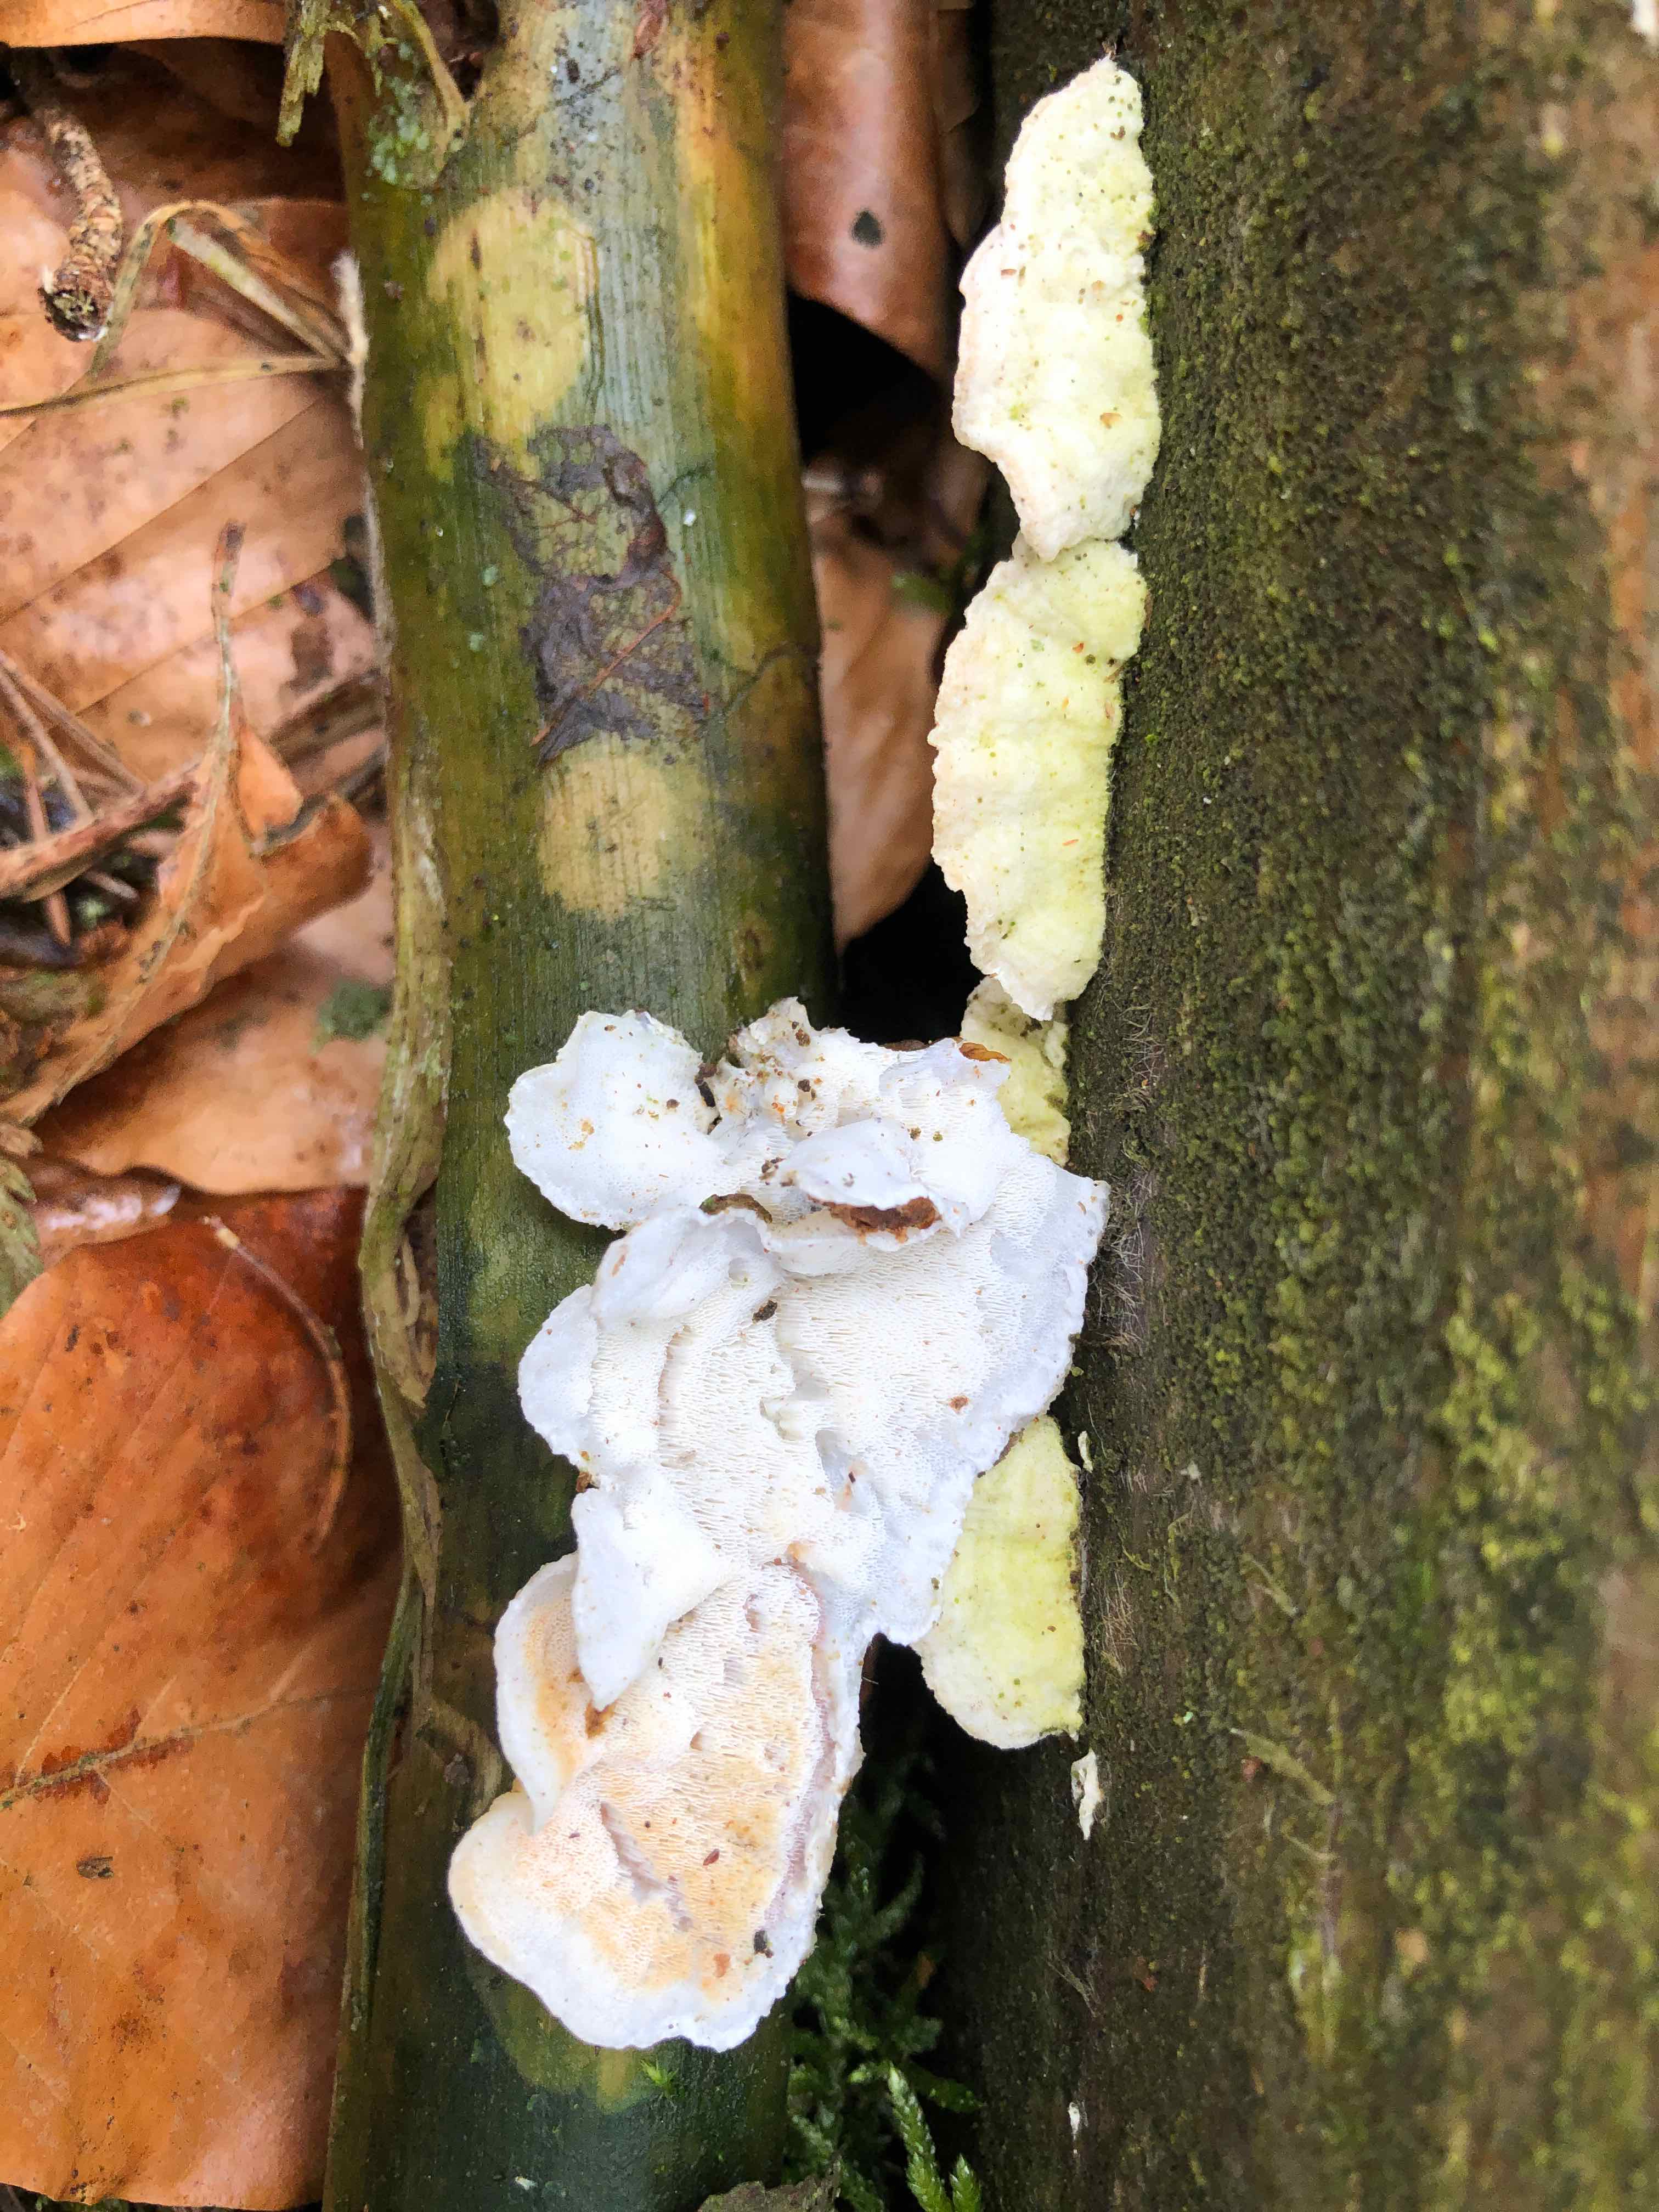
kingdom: Fungi
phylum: Basidiomycota
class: Agaricomycetes
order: Polyporales
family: Incrustoporiaceae
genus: Skeletocutis
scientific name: Skeletocutis amorpha
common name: orange krystalporesvamp
